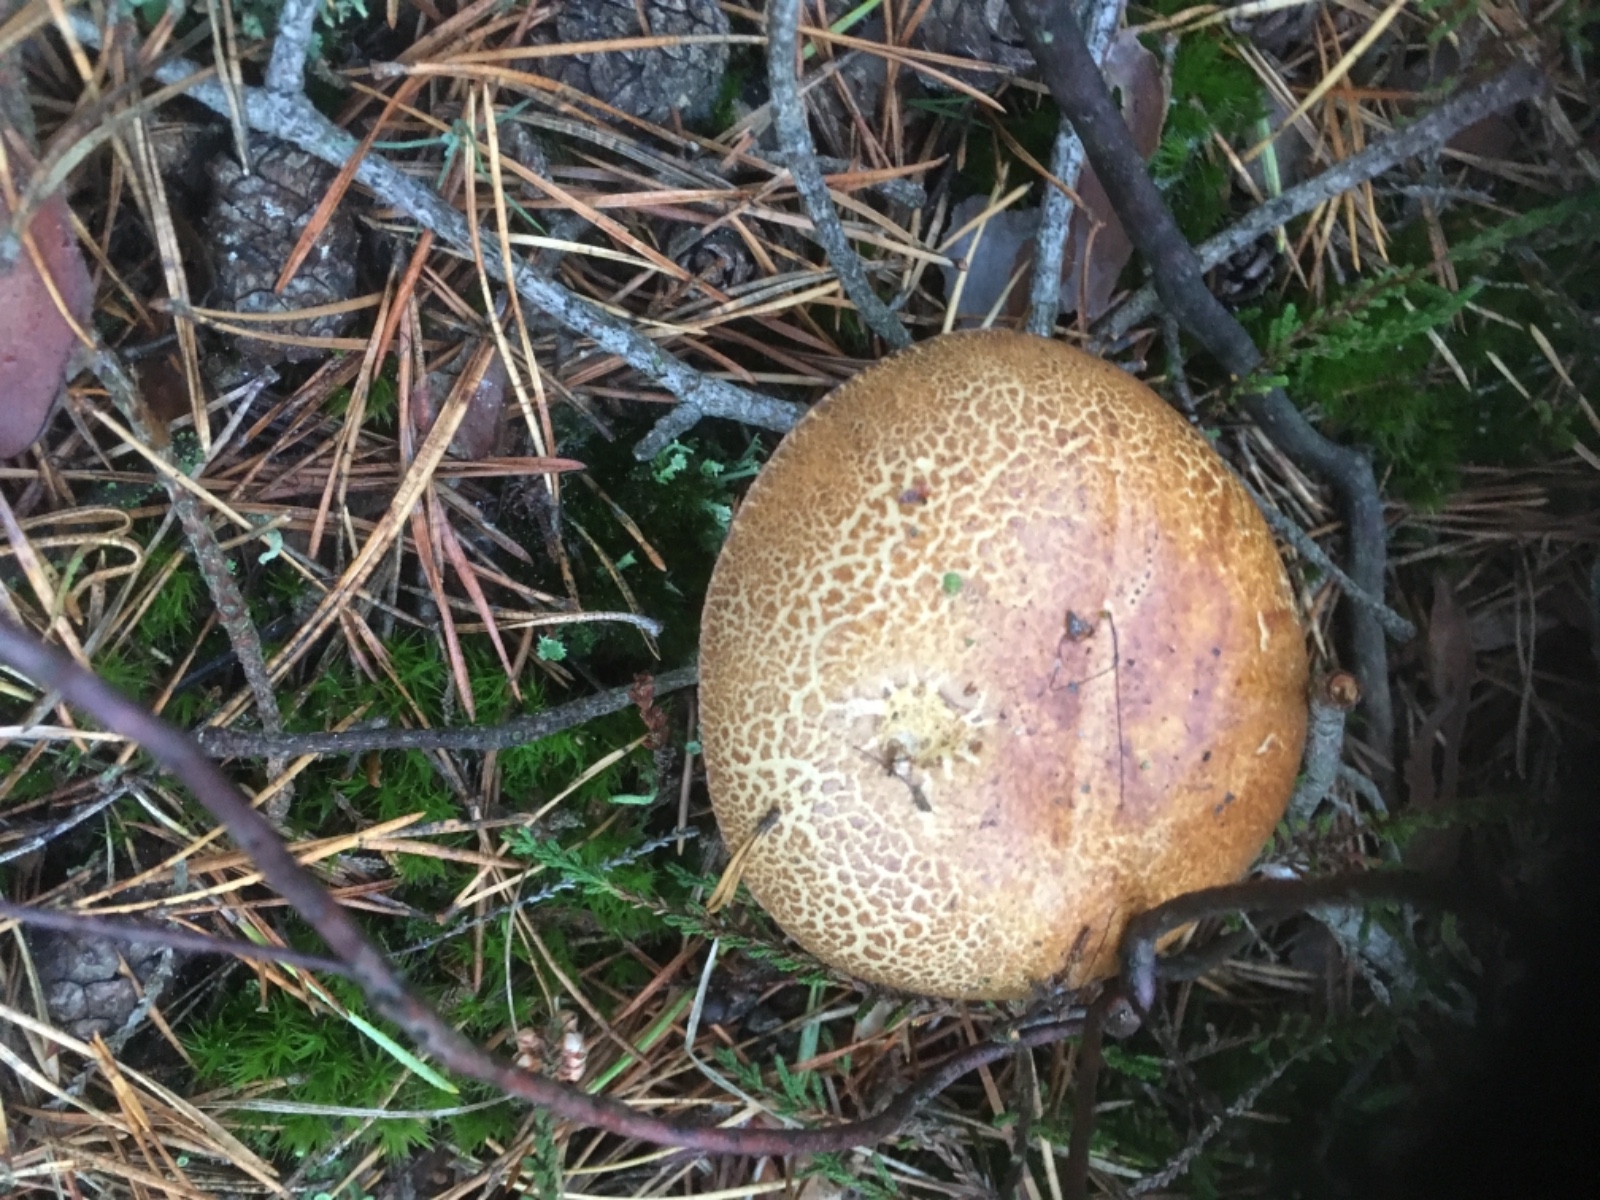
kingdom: Fungi
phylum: Basidiomycota
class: Agaricomycetes
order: Boletales
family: Boletaceae
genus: Imleria
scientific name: Imleria badia
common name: brunstokket rørhat
